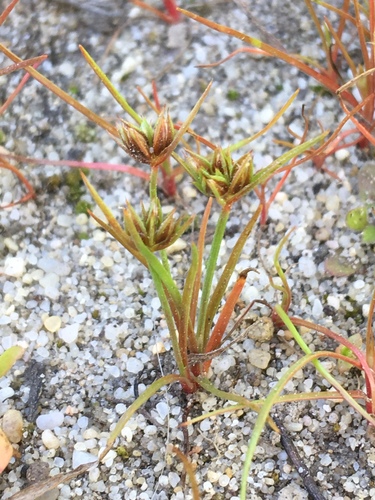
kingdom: Plantae
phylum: Tracheophyta
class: Liliopsida
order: Poales
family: Juncaceae
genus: Juncus
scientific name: Juncus capitatus
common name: Dwarf rush
